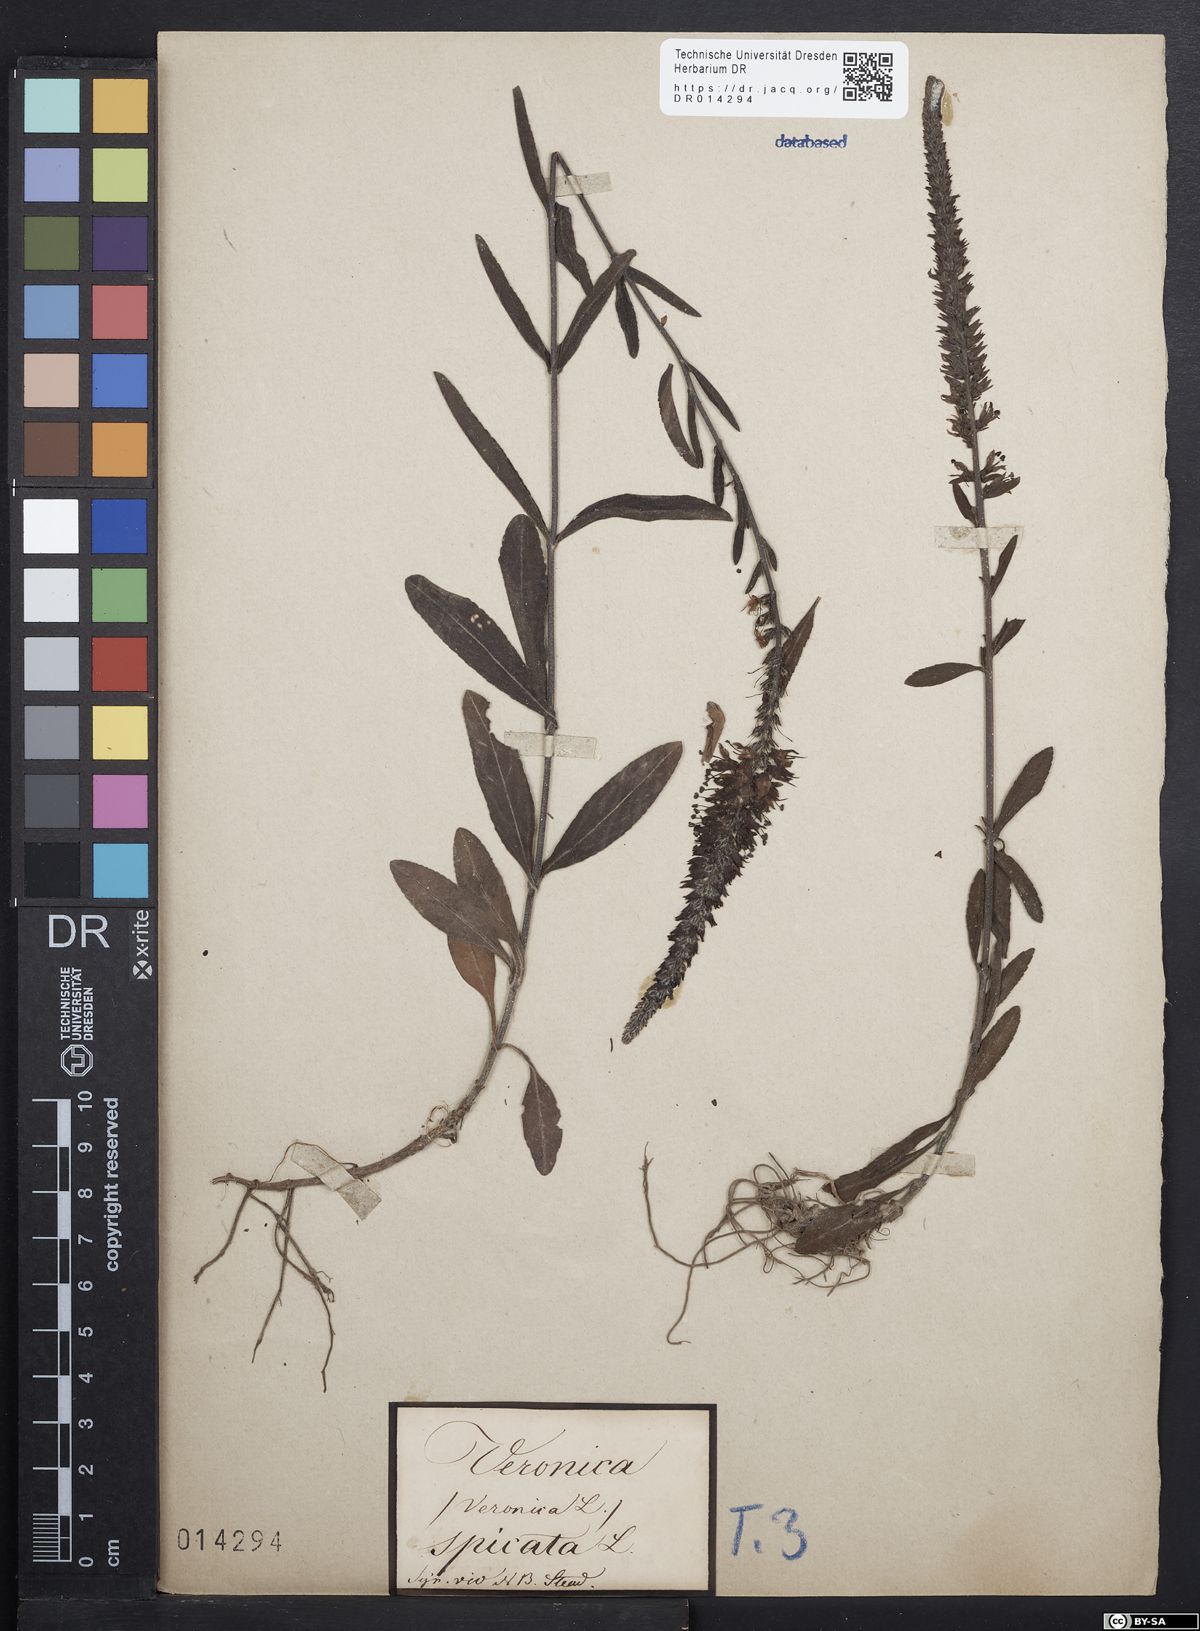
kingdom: Plantae
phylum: Tracheophyta
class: Magnoliopsida
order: Lamiales
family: Plantaginaceae
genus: Veronica
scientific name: Veronica spicata
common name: Spiked speedwell
